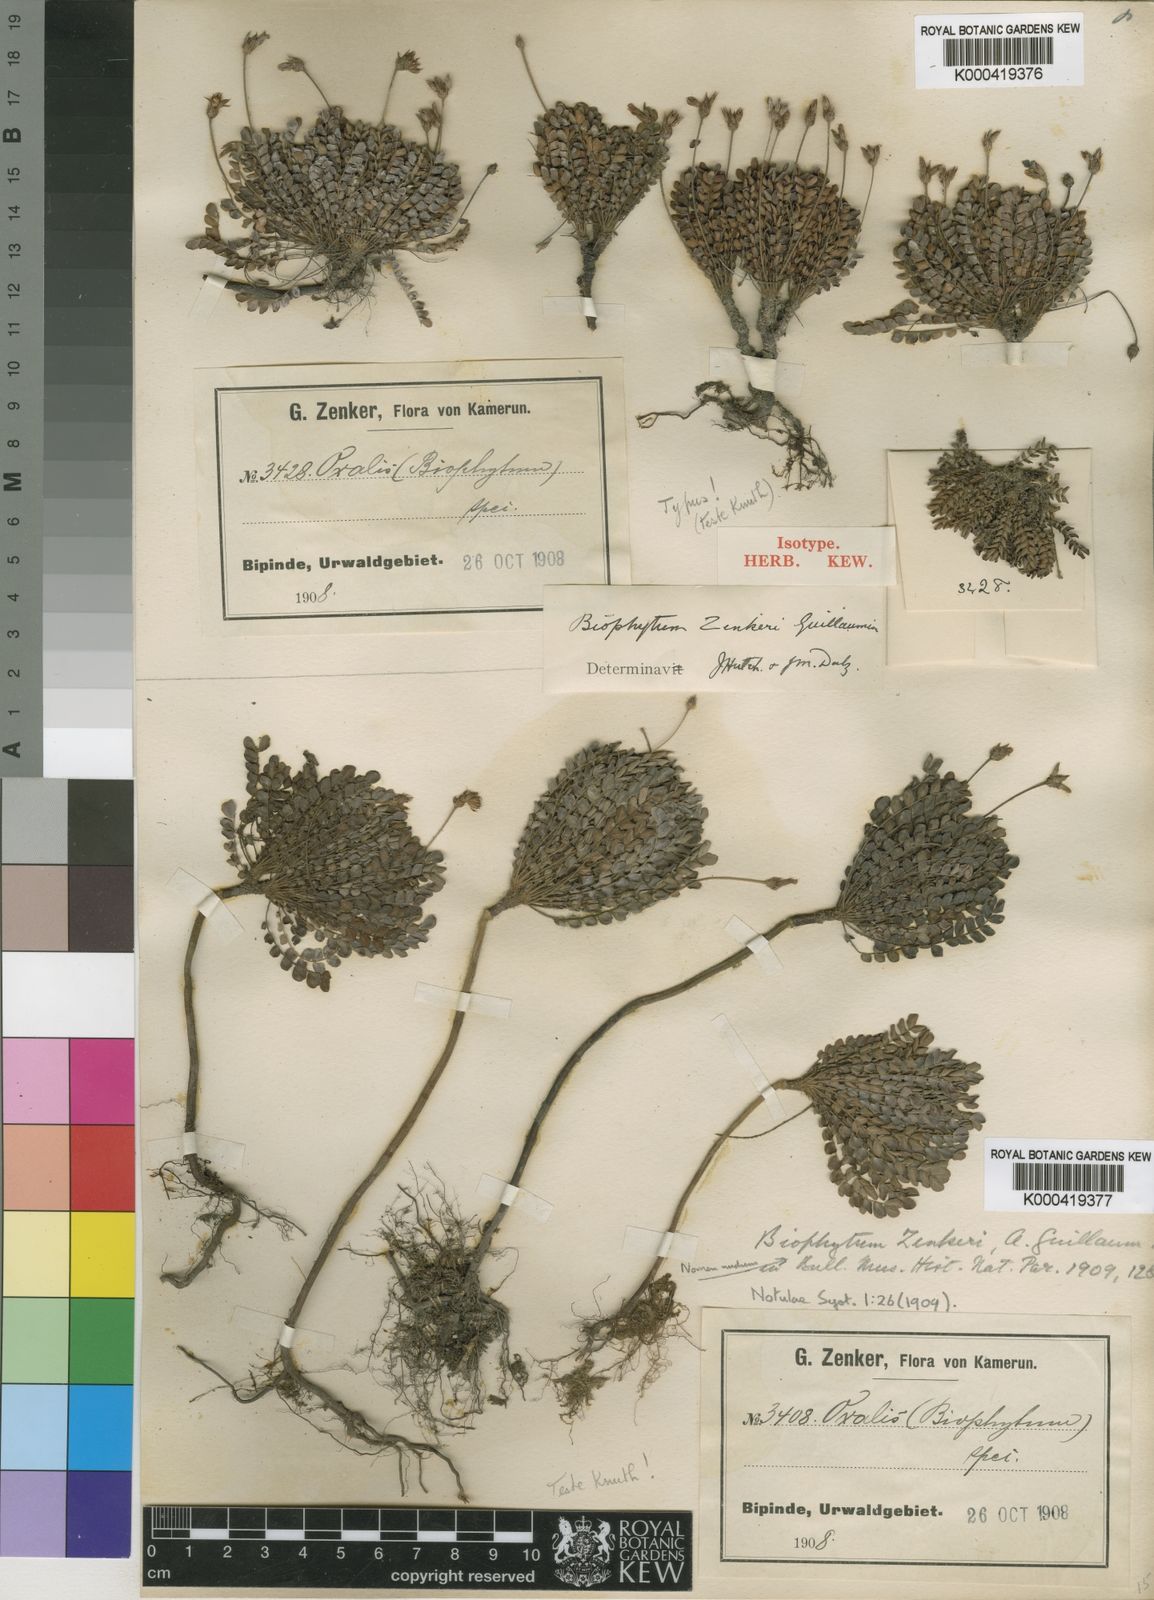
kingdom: Plantae
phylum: Tracheophyta
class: Magnoliopsida
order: Oxalidales
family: Oxalidaceae
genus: Biophytum
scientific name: Biophytum zenkeri
